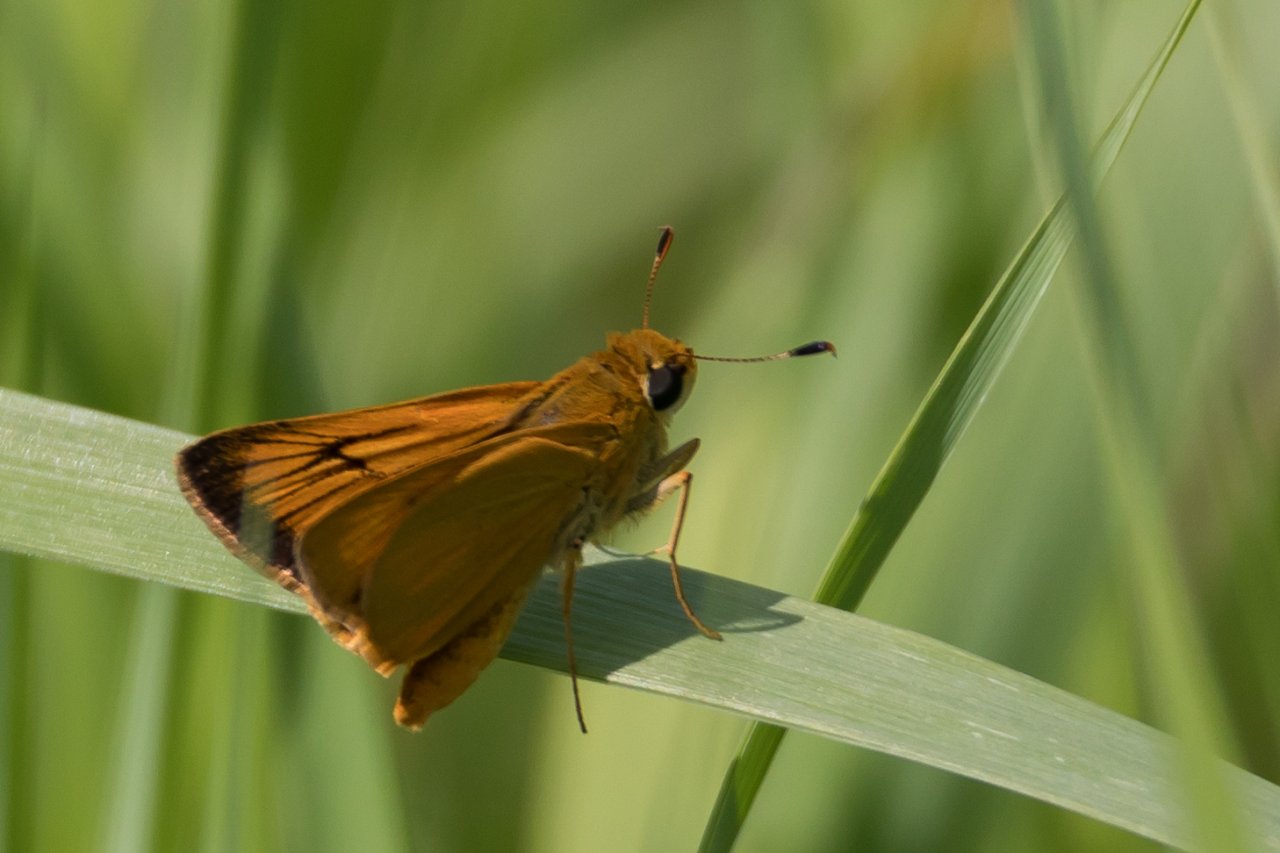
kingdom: Animalia
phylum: Arthropoda
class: Insecta
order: Lepidoptera
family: Hesperiidae
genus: Atrytone
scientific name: Atrytone delaware
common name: Delaware Skipper
